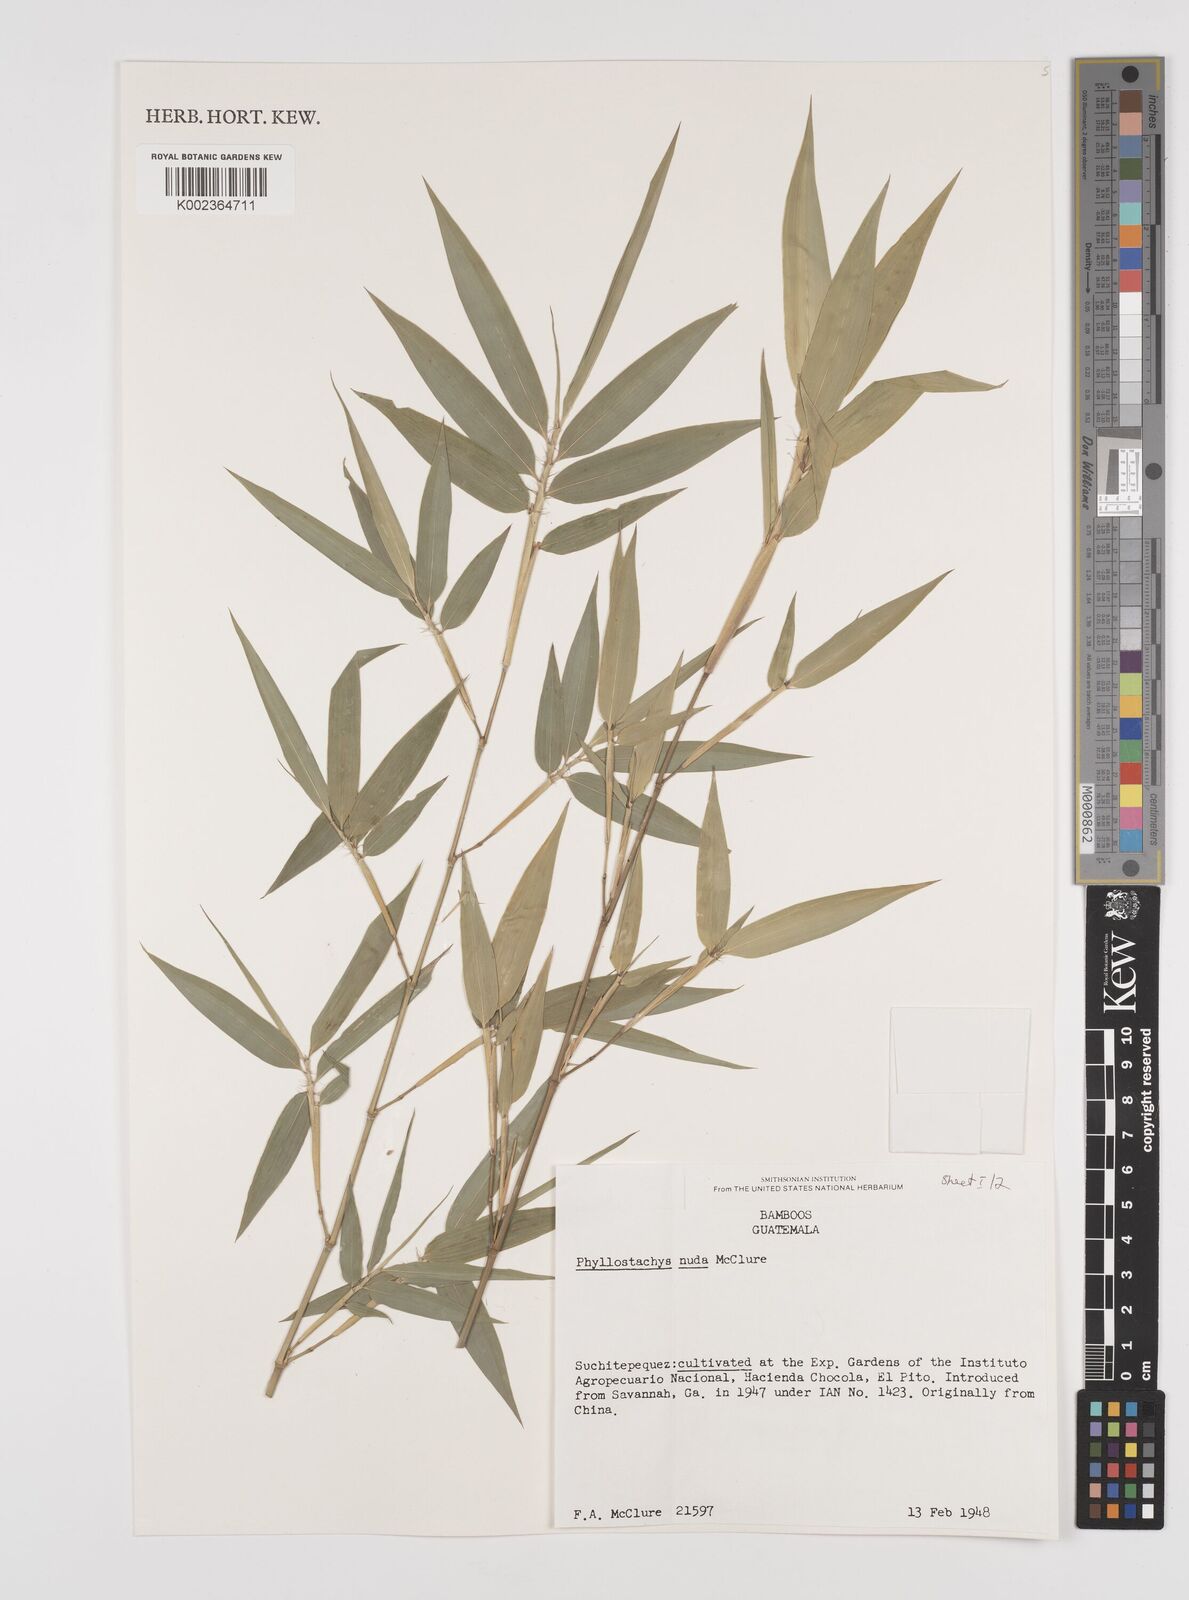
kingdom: Plantae
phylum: Tracheophyta
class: Liliopsida
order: Poales
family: Poaceae
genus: Phyllostachys
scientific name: Phyllostachys nuda
